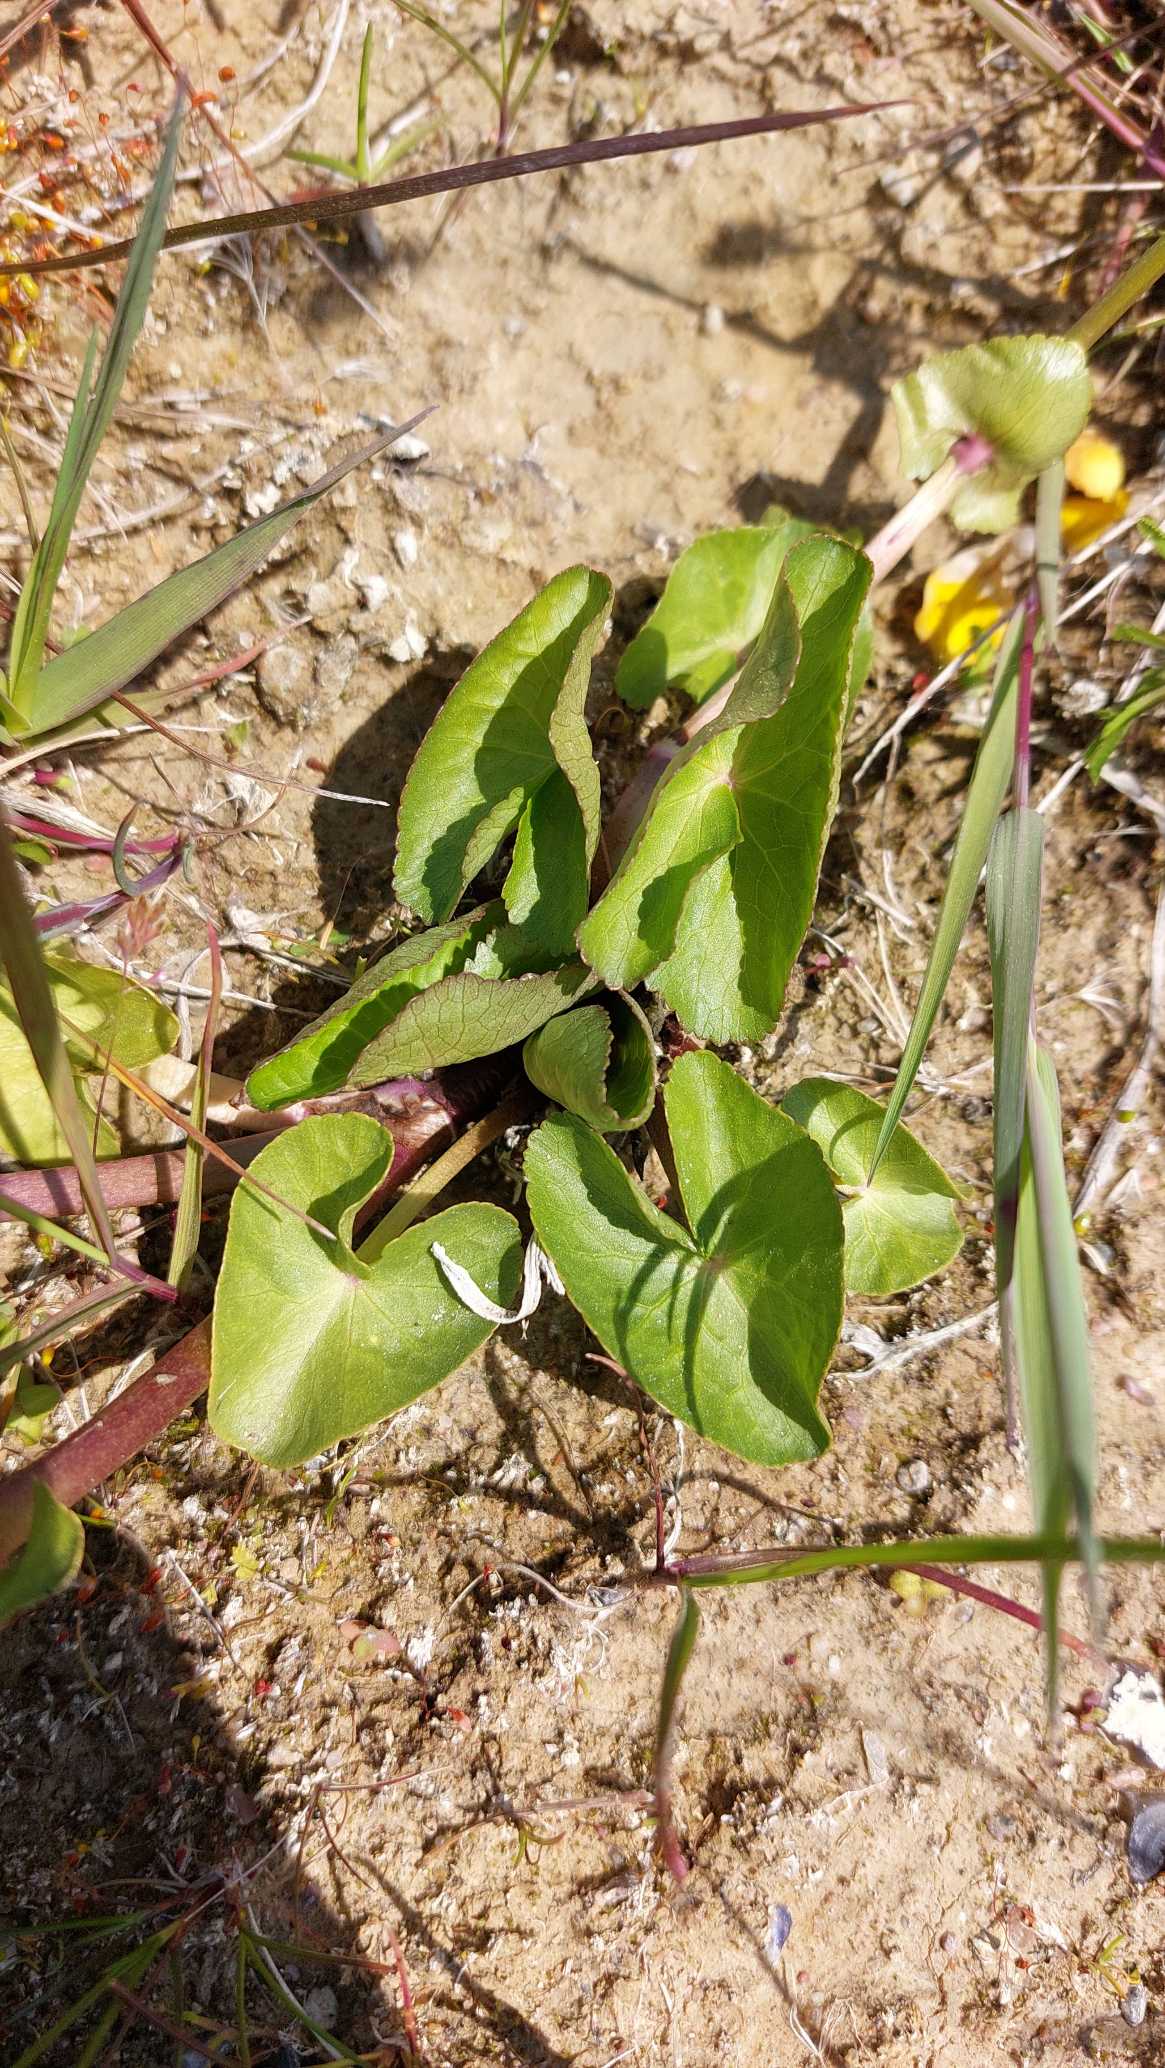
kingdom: Plantae
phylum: Tracheophyta
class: Magnoliopsida
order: Ranunculales
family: Ranunculaceae
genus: Caltha
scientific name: Caltha palustris
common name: Eng-kabbeleje
